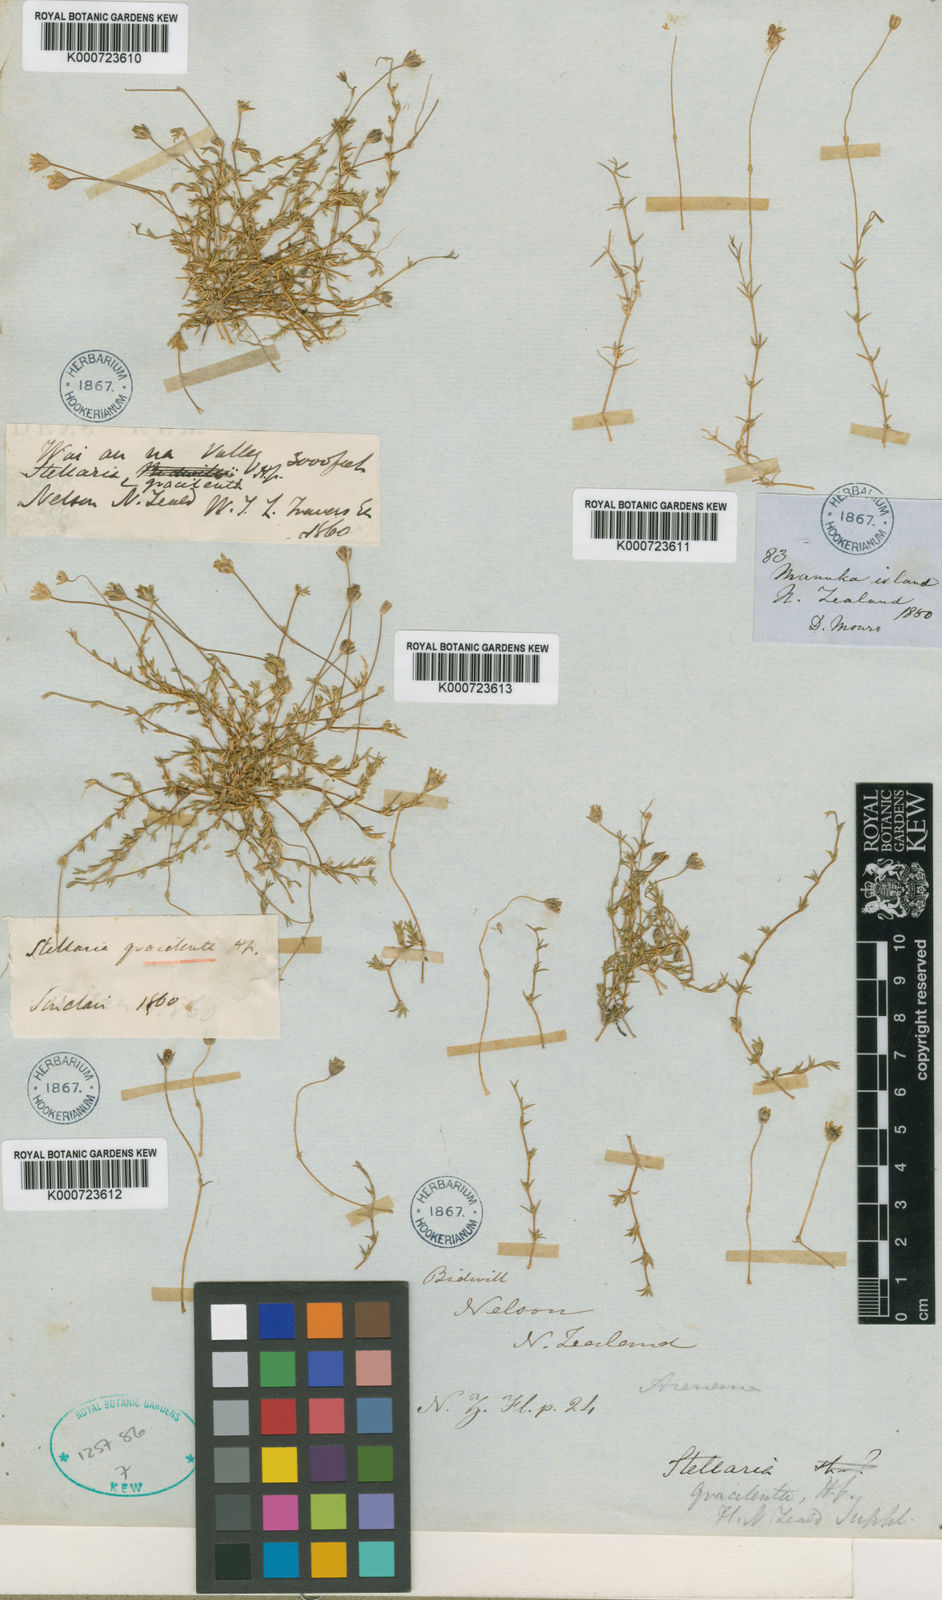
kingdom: Plantae
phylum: Tracheophyta
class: Magnoliopsida
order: Caryophyllales
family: Caryophyllaceae
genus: Stellaria
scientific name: Stellaria gracilenta
